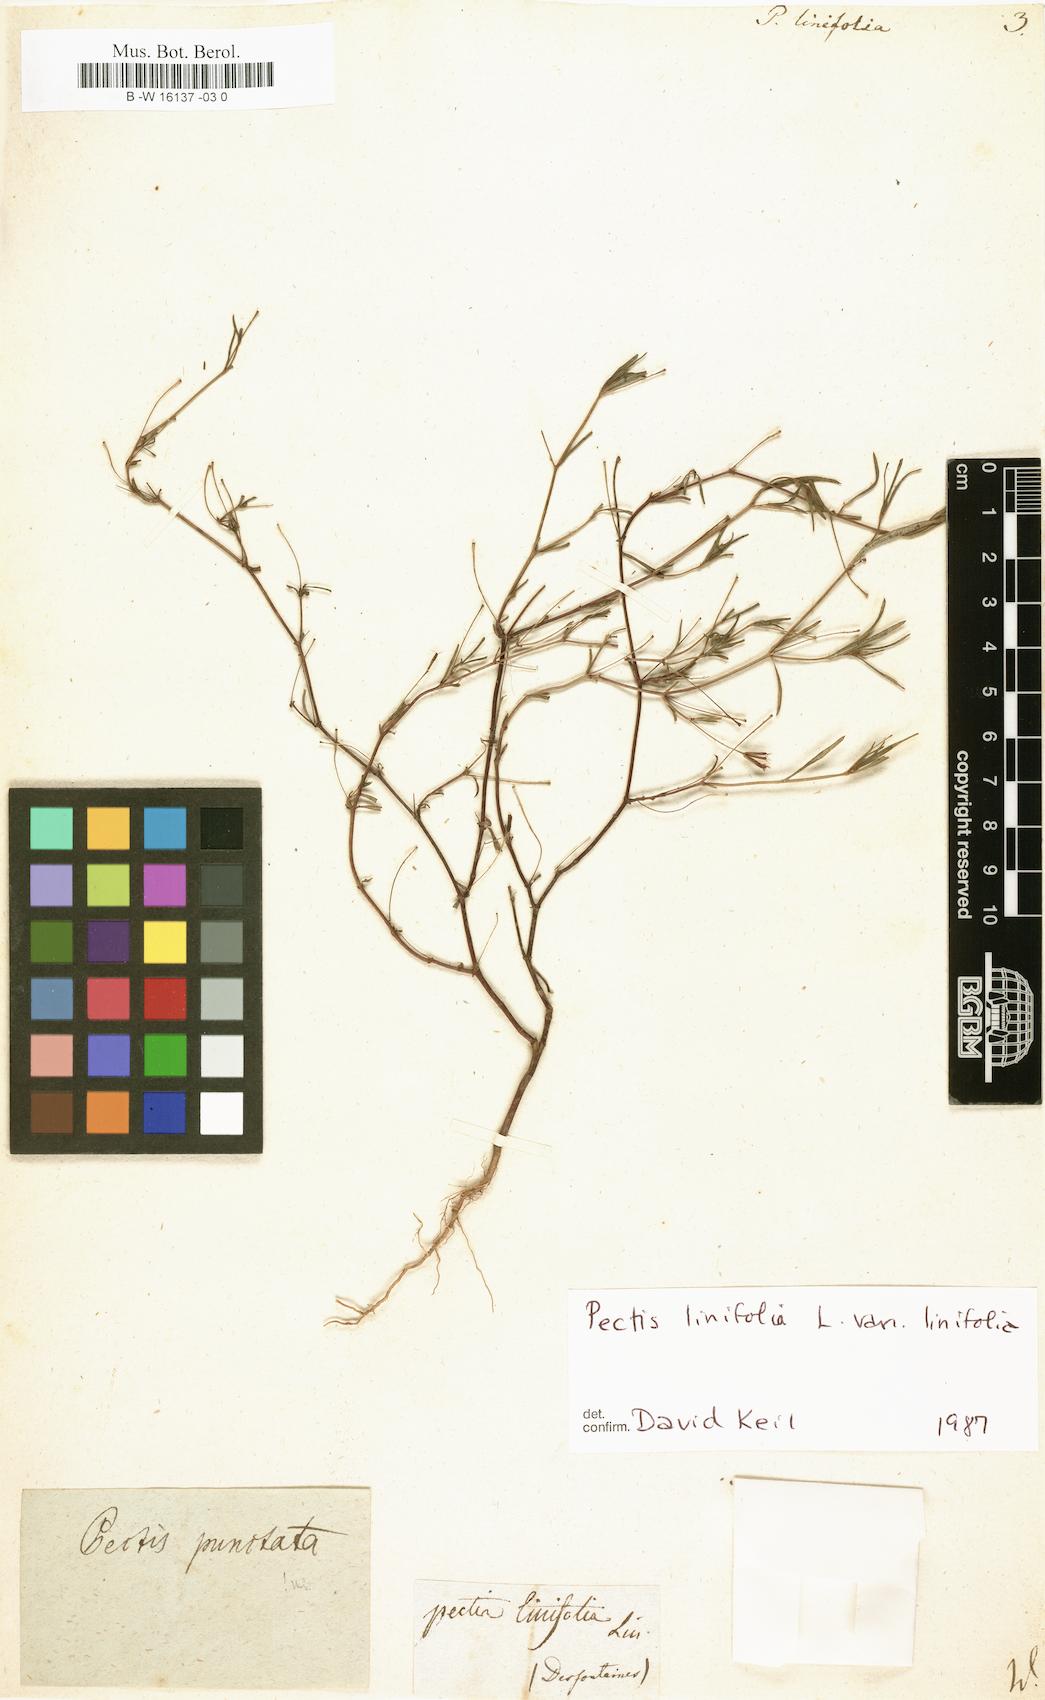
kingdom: Plantae
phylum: Tracheophyta
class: Magnoliopsida
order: Asterales
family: Asteraceae
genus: Pectis
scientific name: Pectis linifolia
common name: Romero macho
